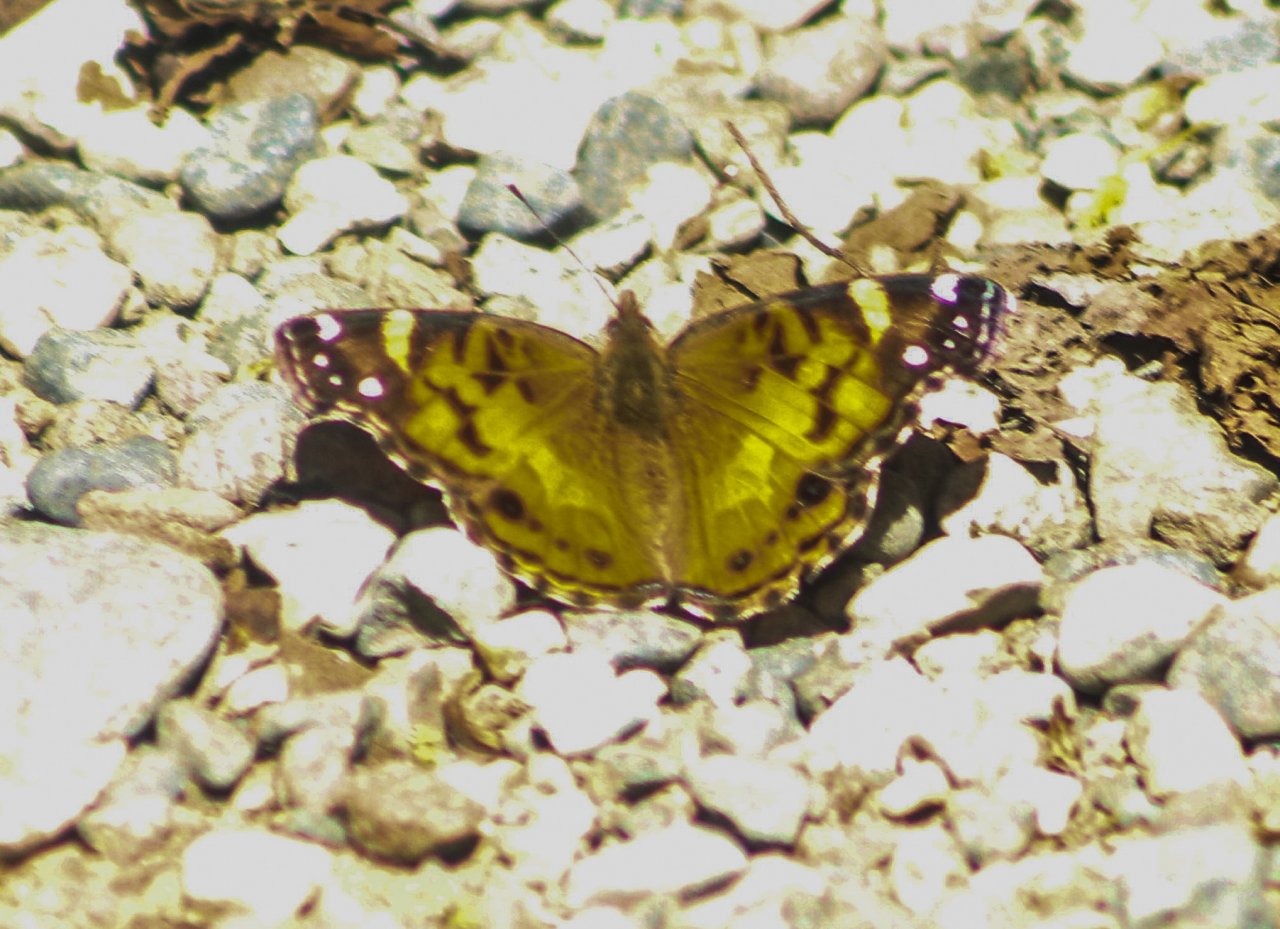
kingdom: Animalia
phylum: Arthropoda
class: Insecta
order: Lepidoptera
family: Nymphalidae
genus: Vanessa
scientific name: Vanessa virginiensis
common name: American Lady
